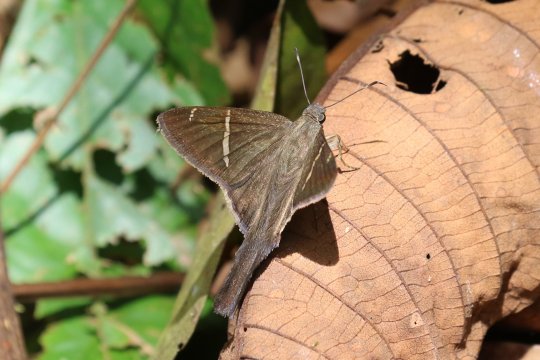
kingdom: Animalia
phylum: Arthropoda
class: Insecta
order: Lepidoptera
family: Hesperiidae
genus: Urbanus
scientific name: Urbanus tanna
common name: Tanna Longtail
